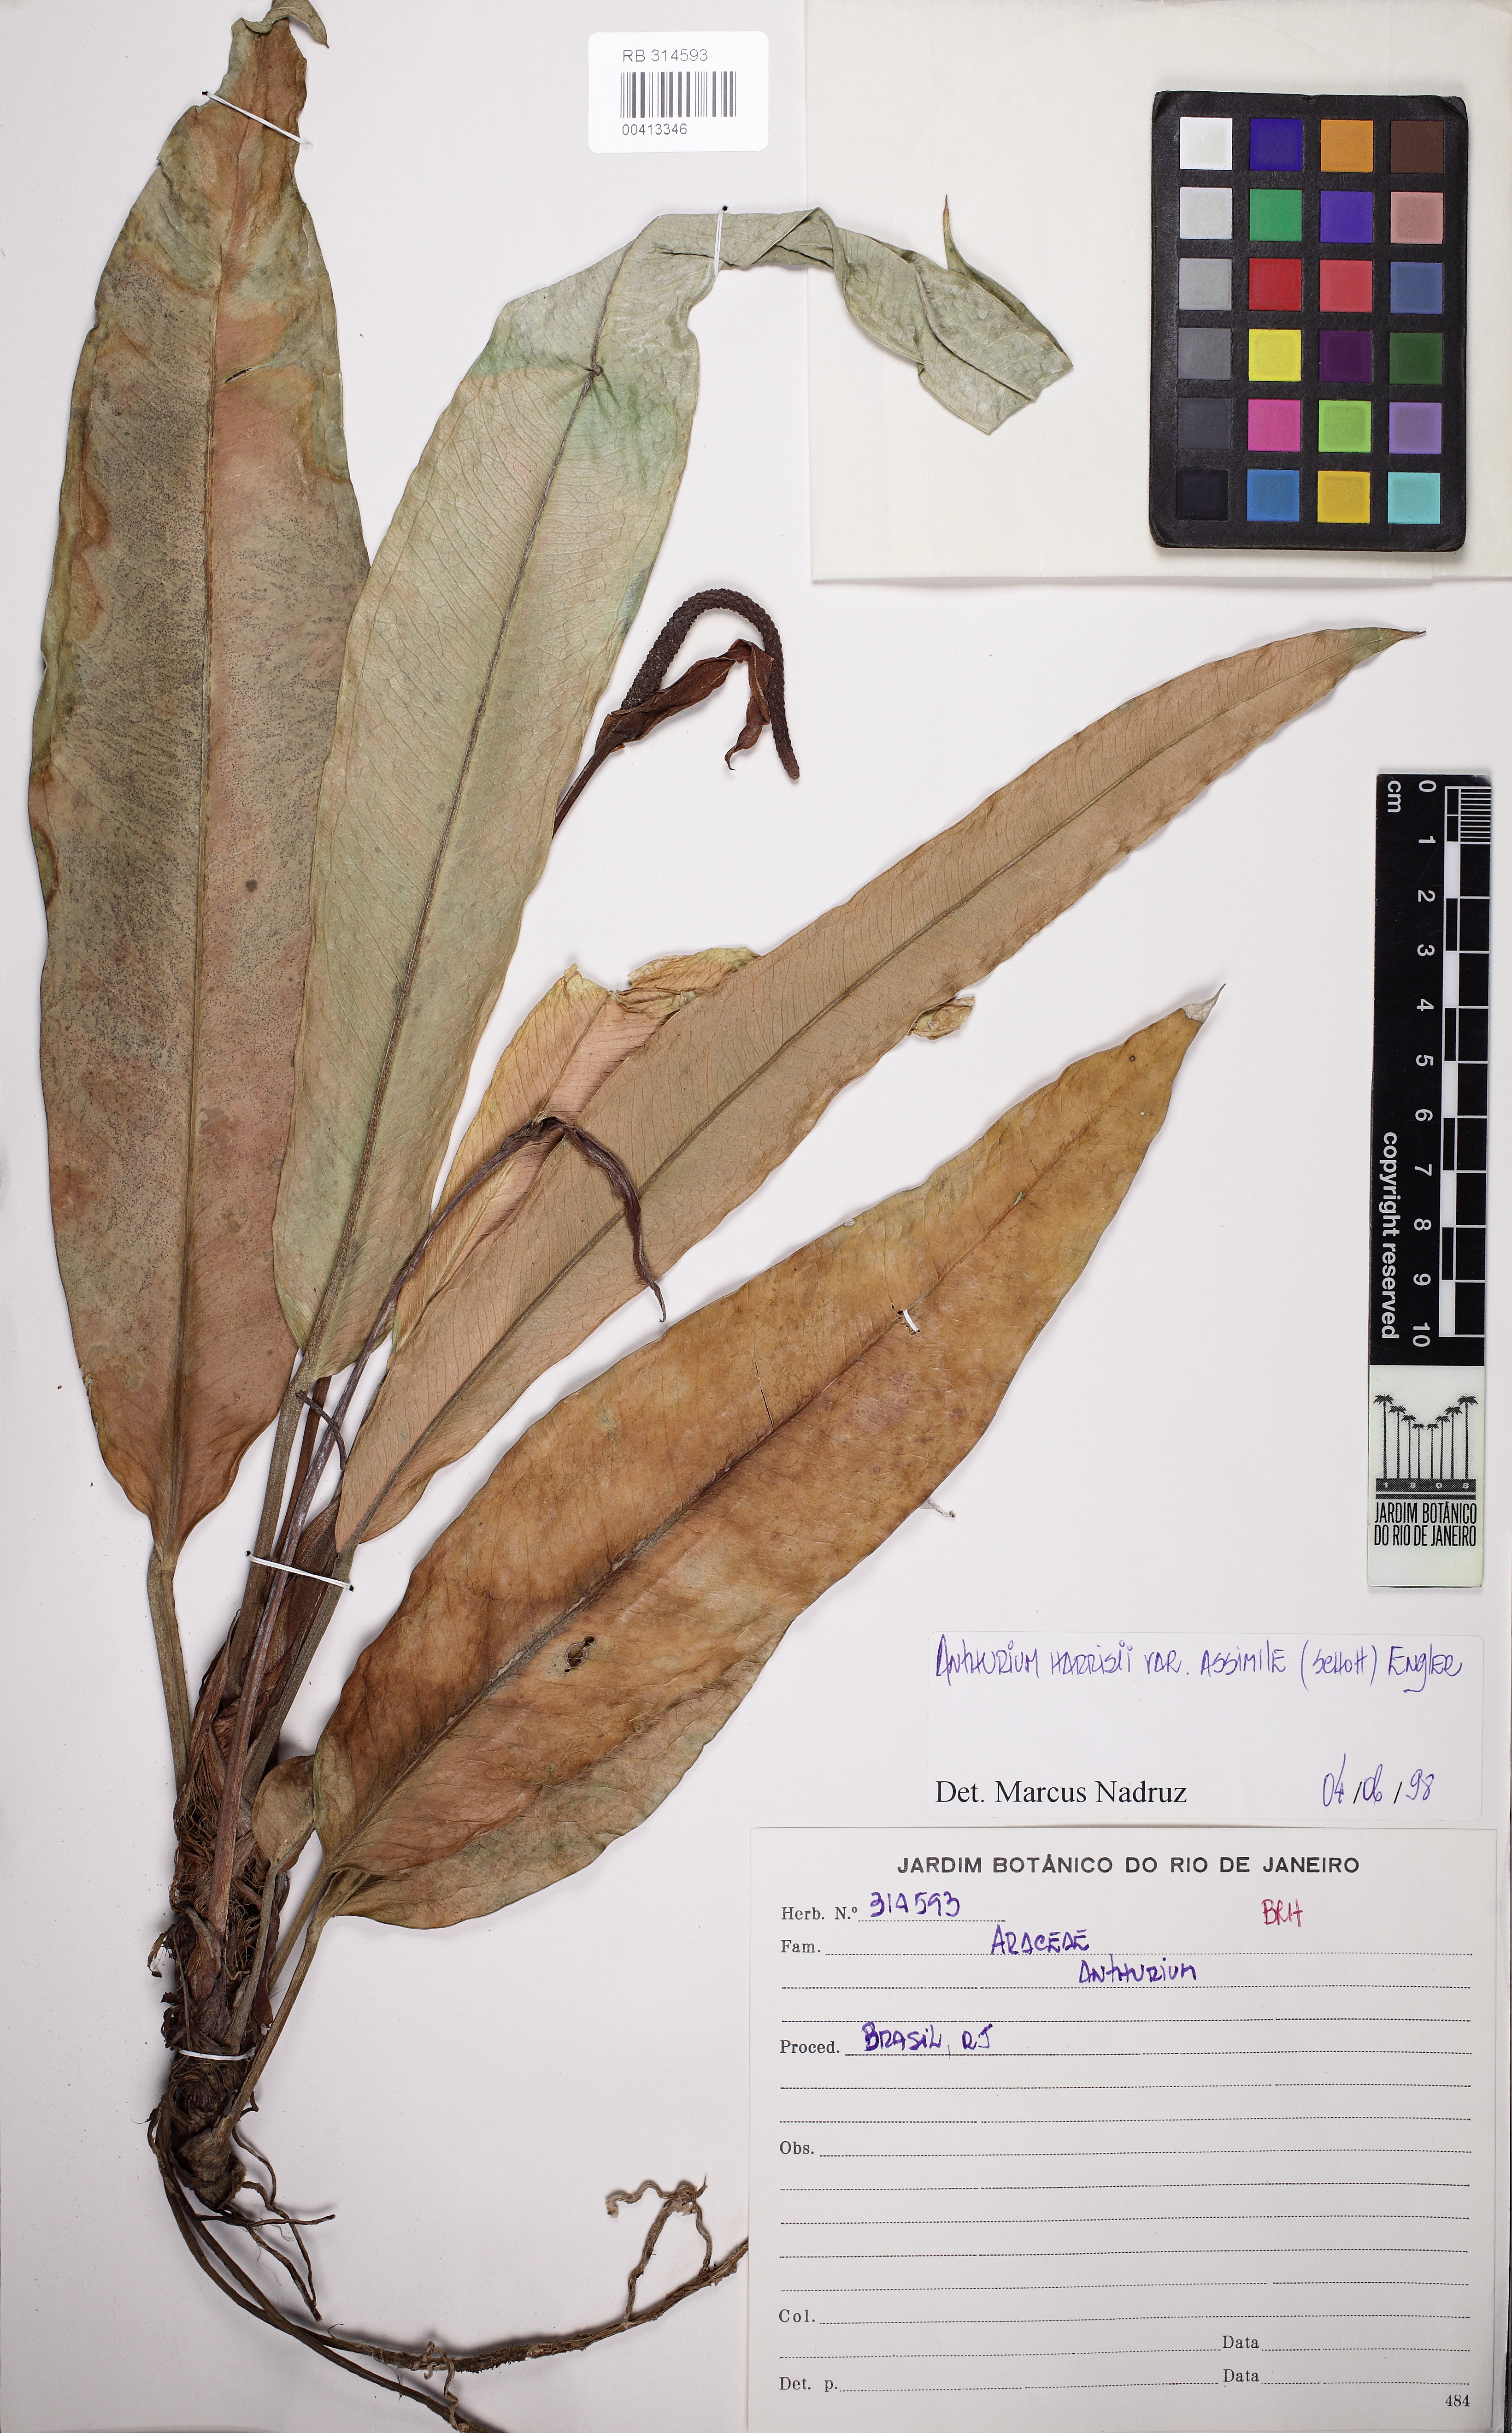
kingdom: Plantae
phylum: Tracheophyta
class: Liliopsida
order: Alismatales
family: Araceae
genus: Anthurium
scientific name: Anthurium harrisii
